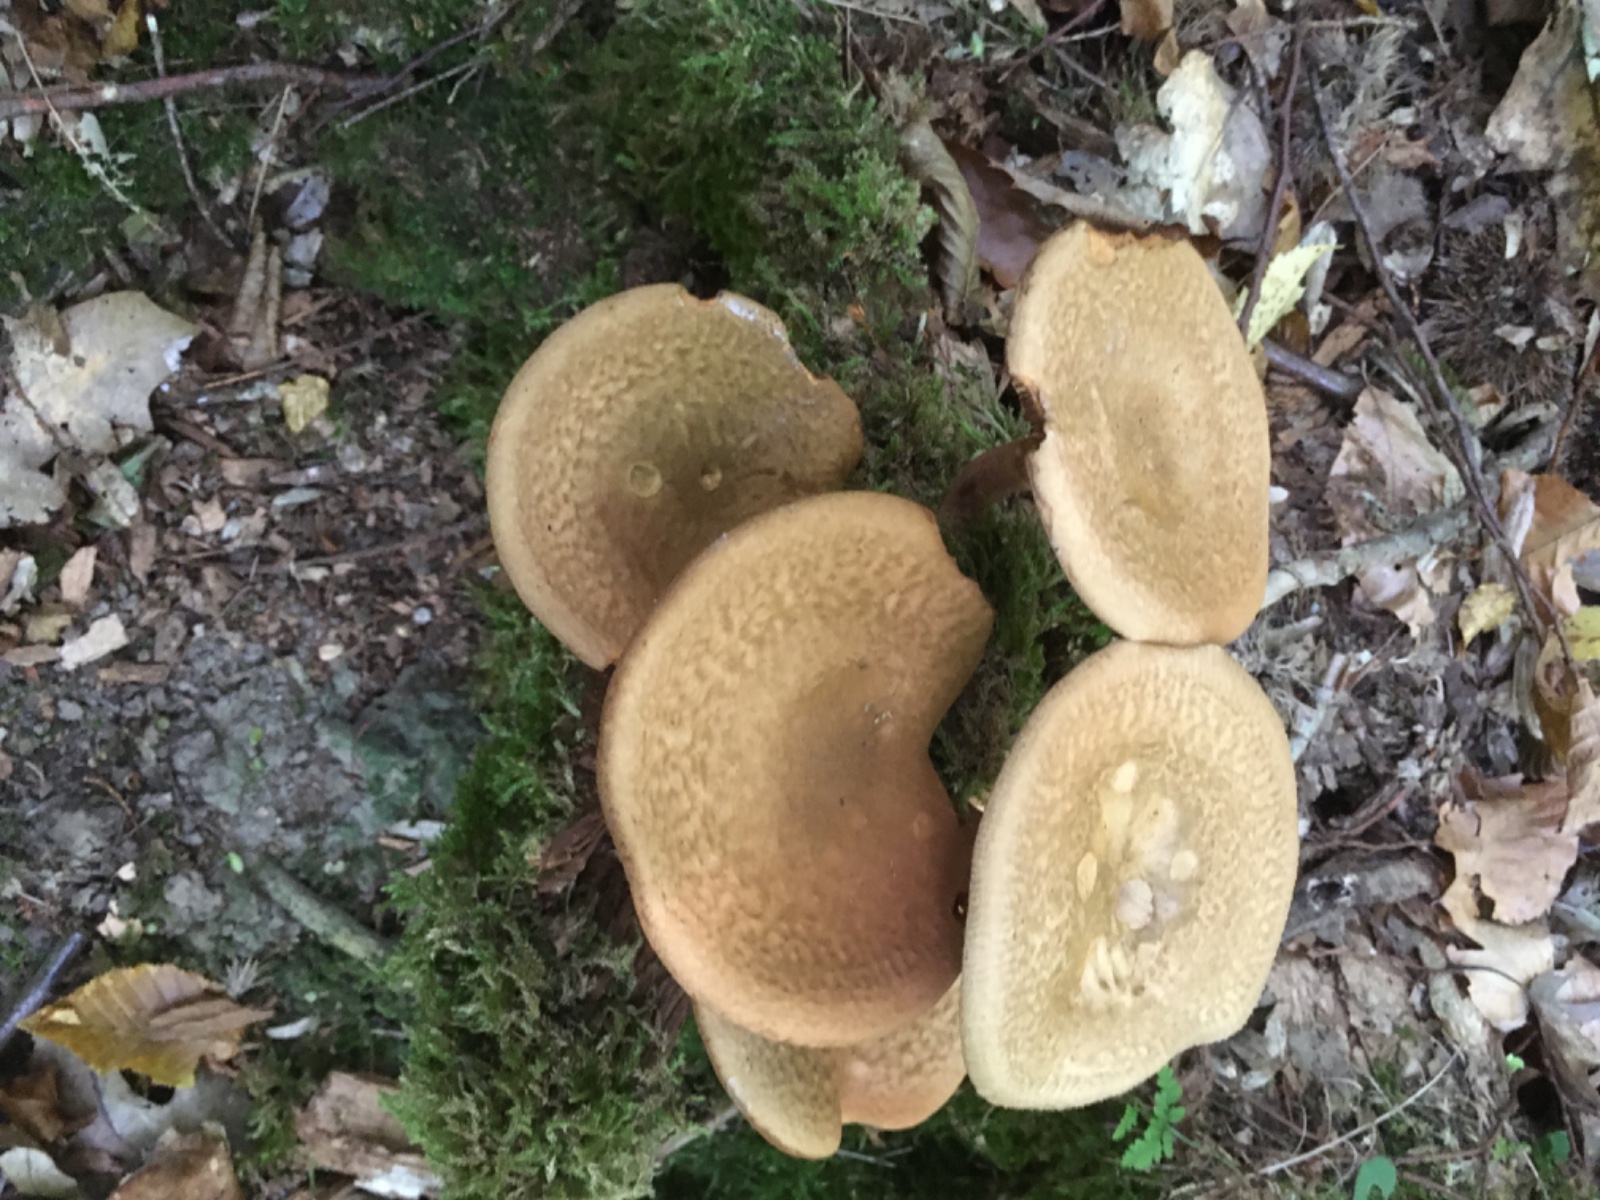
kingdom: Fungi
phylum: Basidiomycota
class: Agaricomycetes
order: Boletales
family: Paxillaceae
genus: Paxillus
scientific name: Paxillus involutus
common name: almindelig netbladhat
